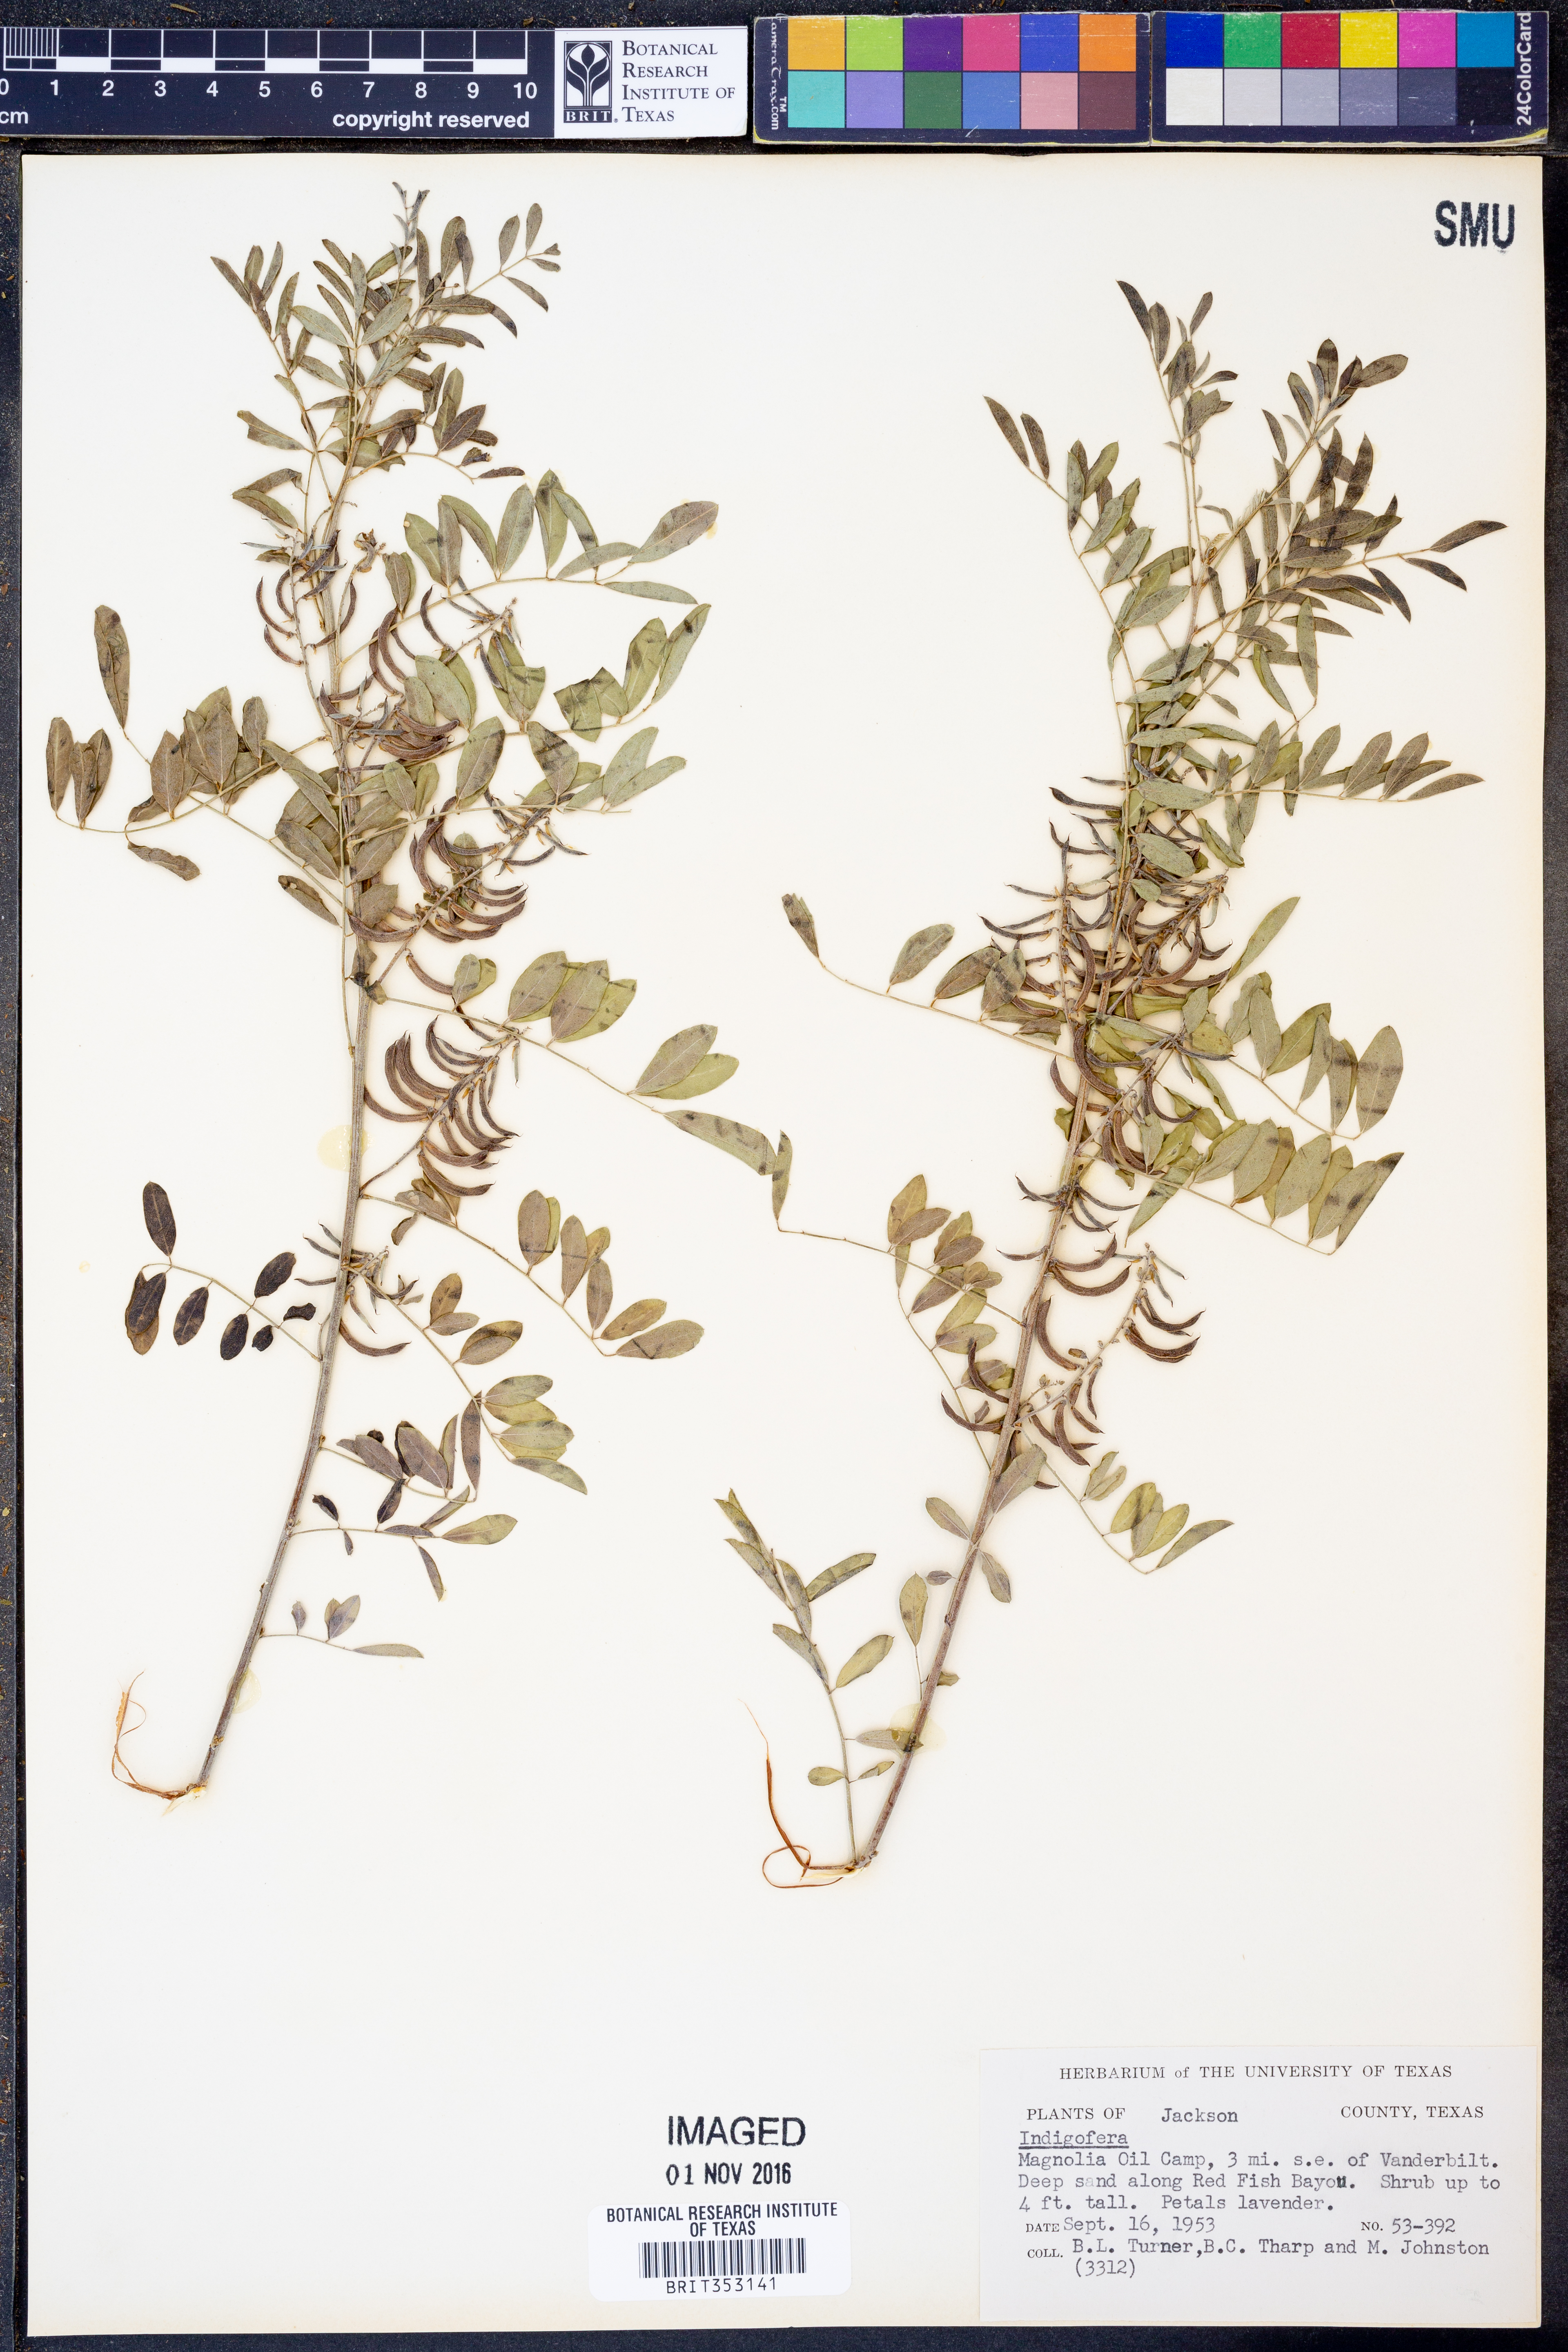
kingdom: Plantae
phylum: Tracheophyta
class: Magnoliopsida
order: Fabales
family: Fabaceae
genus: Indigofera
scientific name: Indigofera
